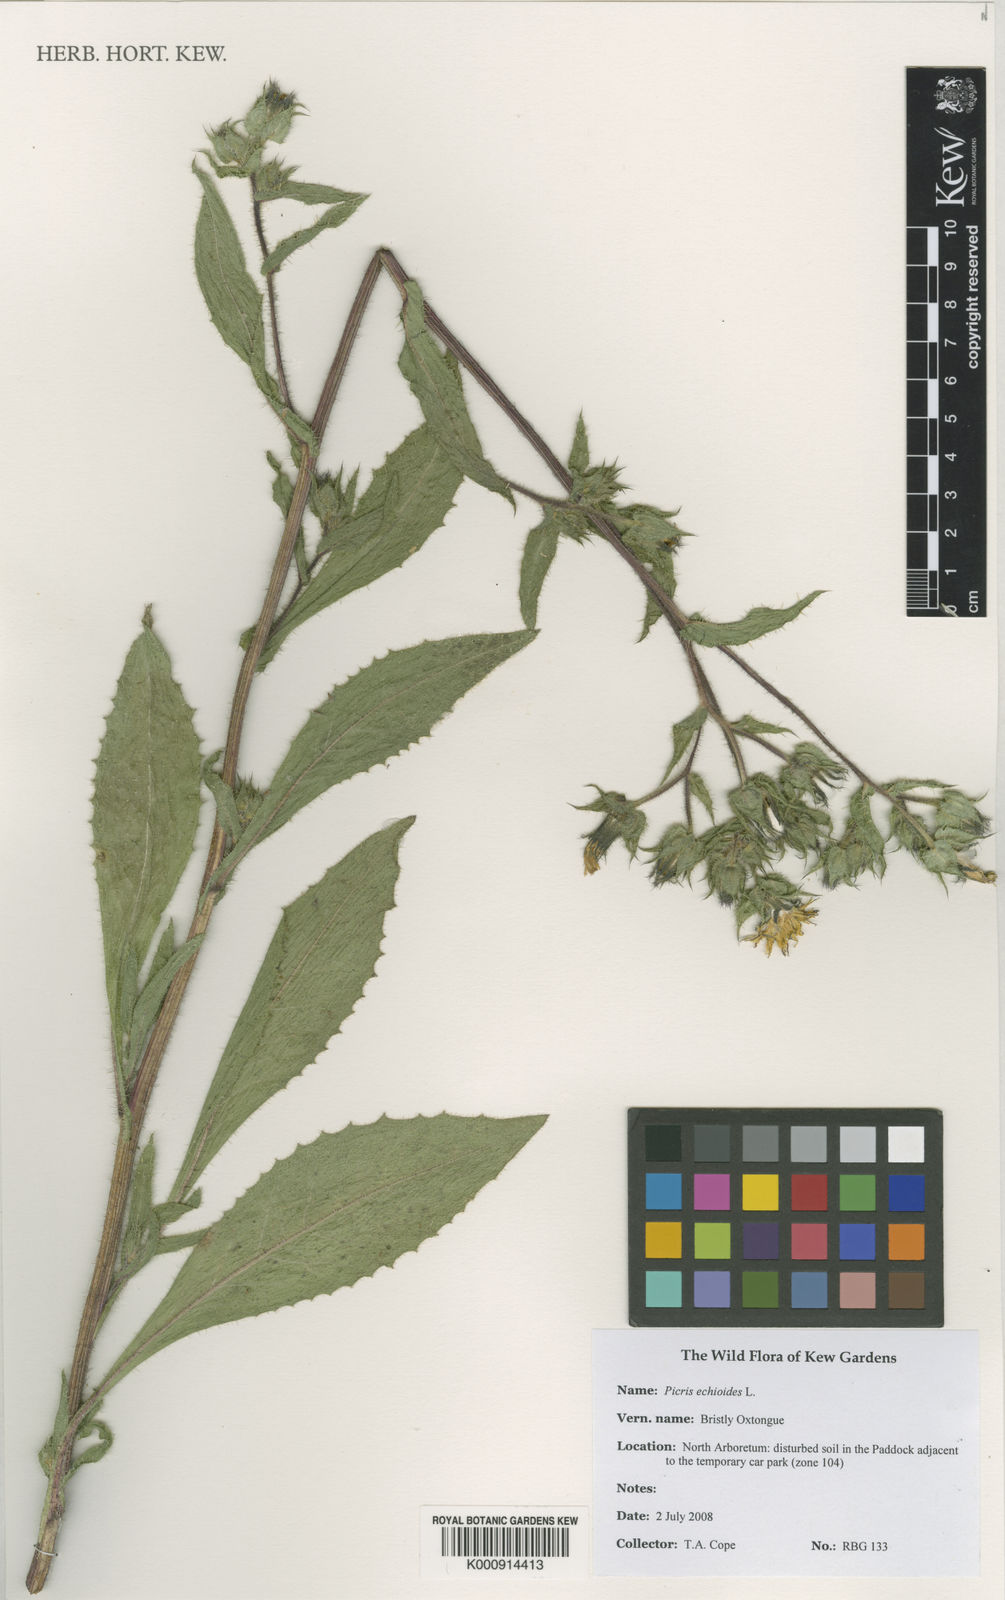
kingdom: Plantae
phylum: Tracheophyta
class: Magnoliopsida
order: Asterales
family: Asteraceae
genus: Helminthotheca
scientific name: Helminthotheca echioides
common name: Ox-tongue
